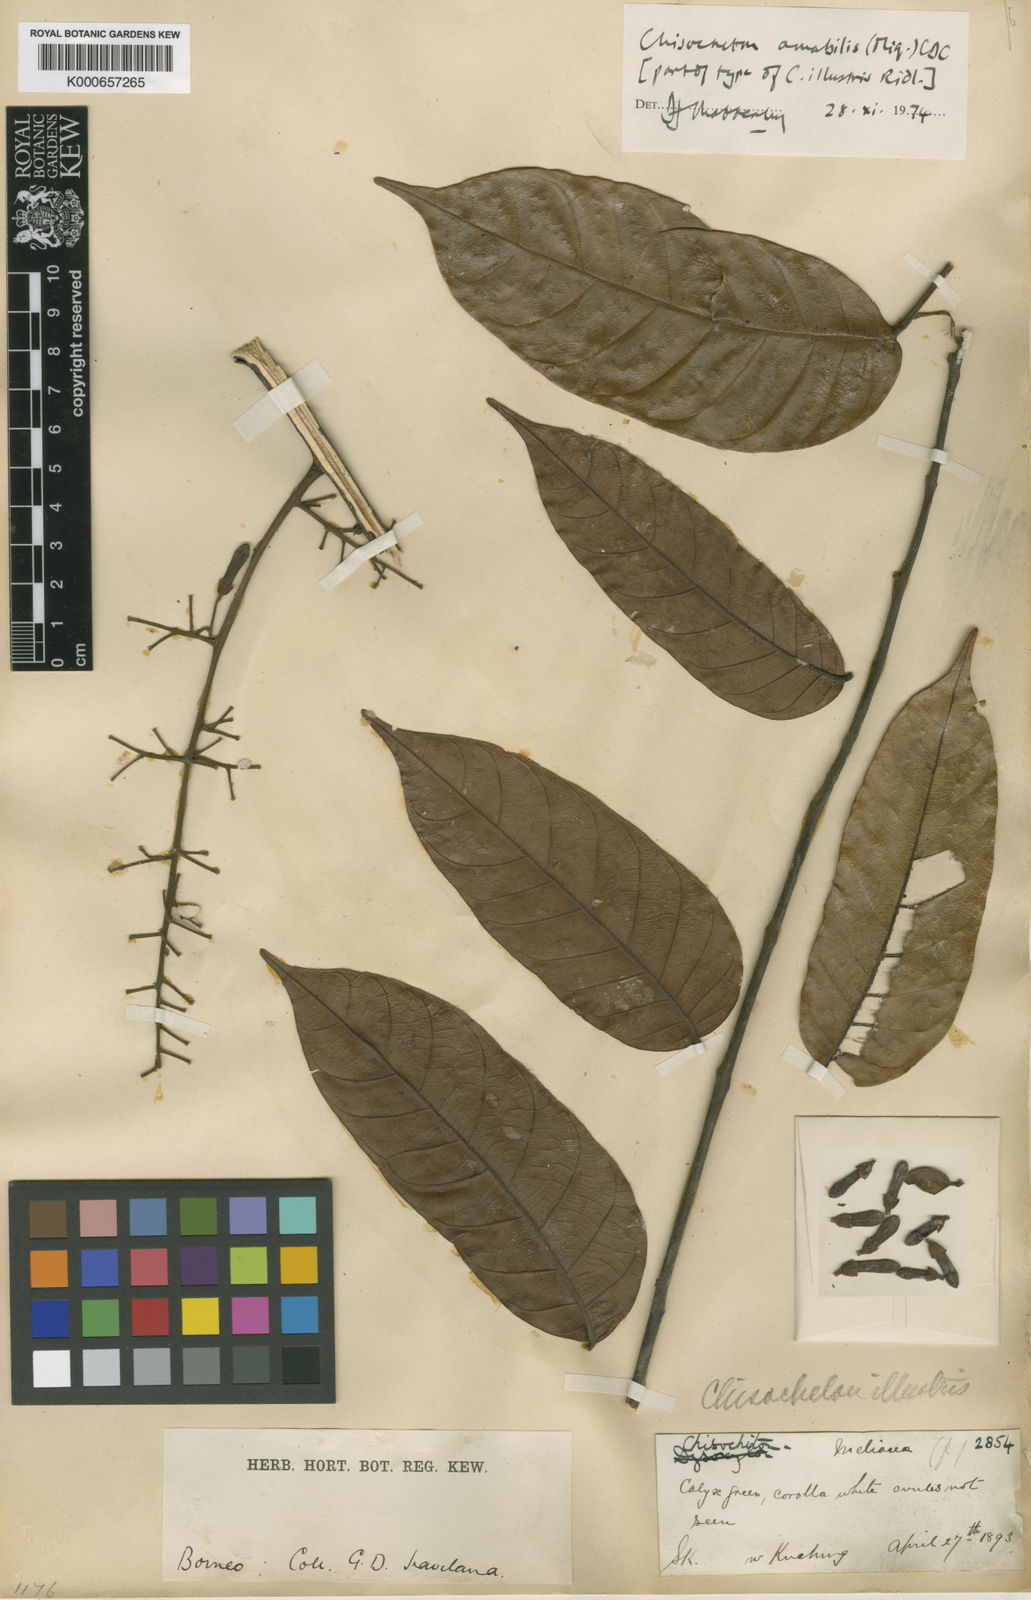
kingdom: Plantae
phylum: Tracheophyta
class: Magnoliopsida
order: Sapindales
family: Meliaceae
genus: Chisocheton
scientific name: Chisocheton amabilis
